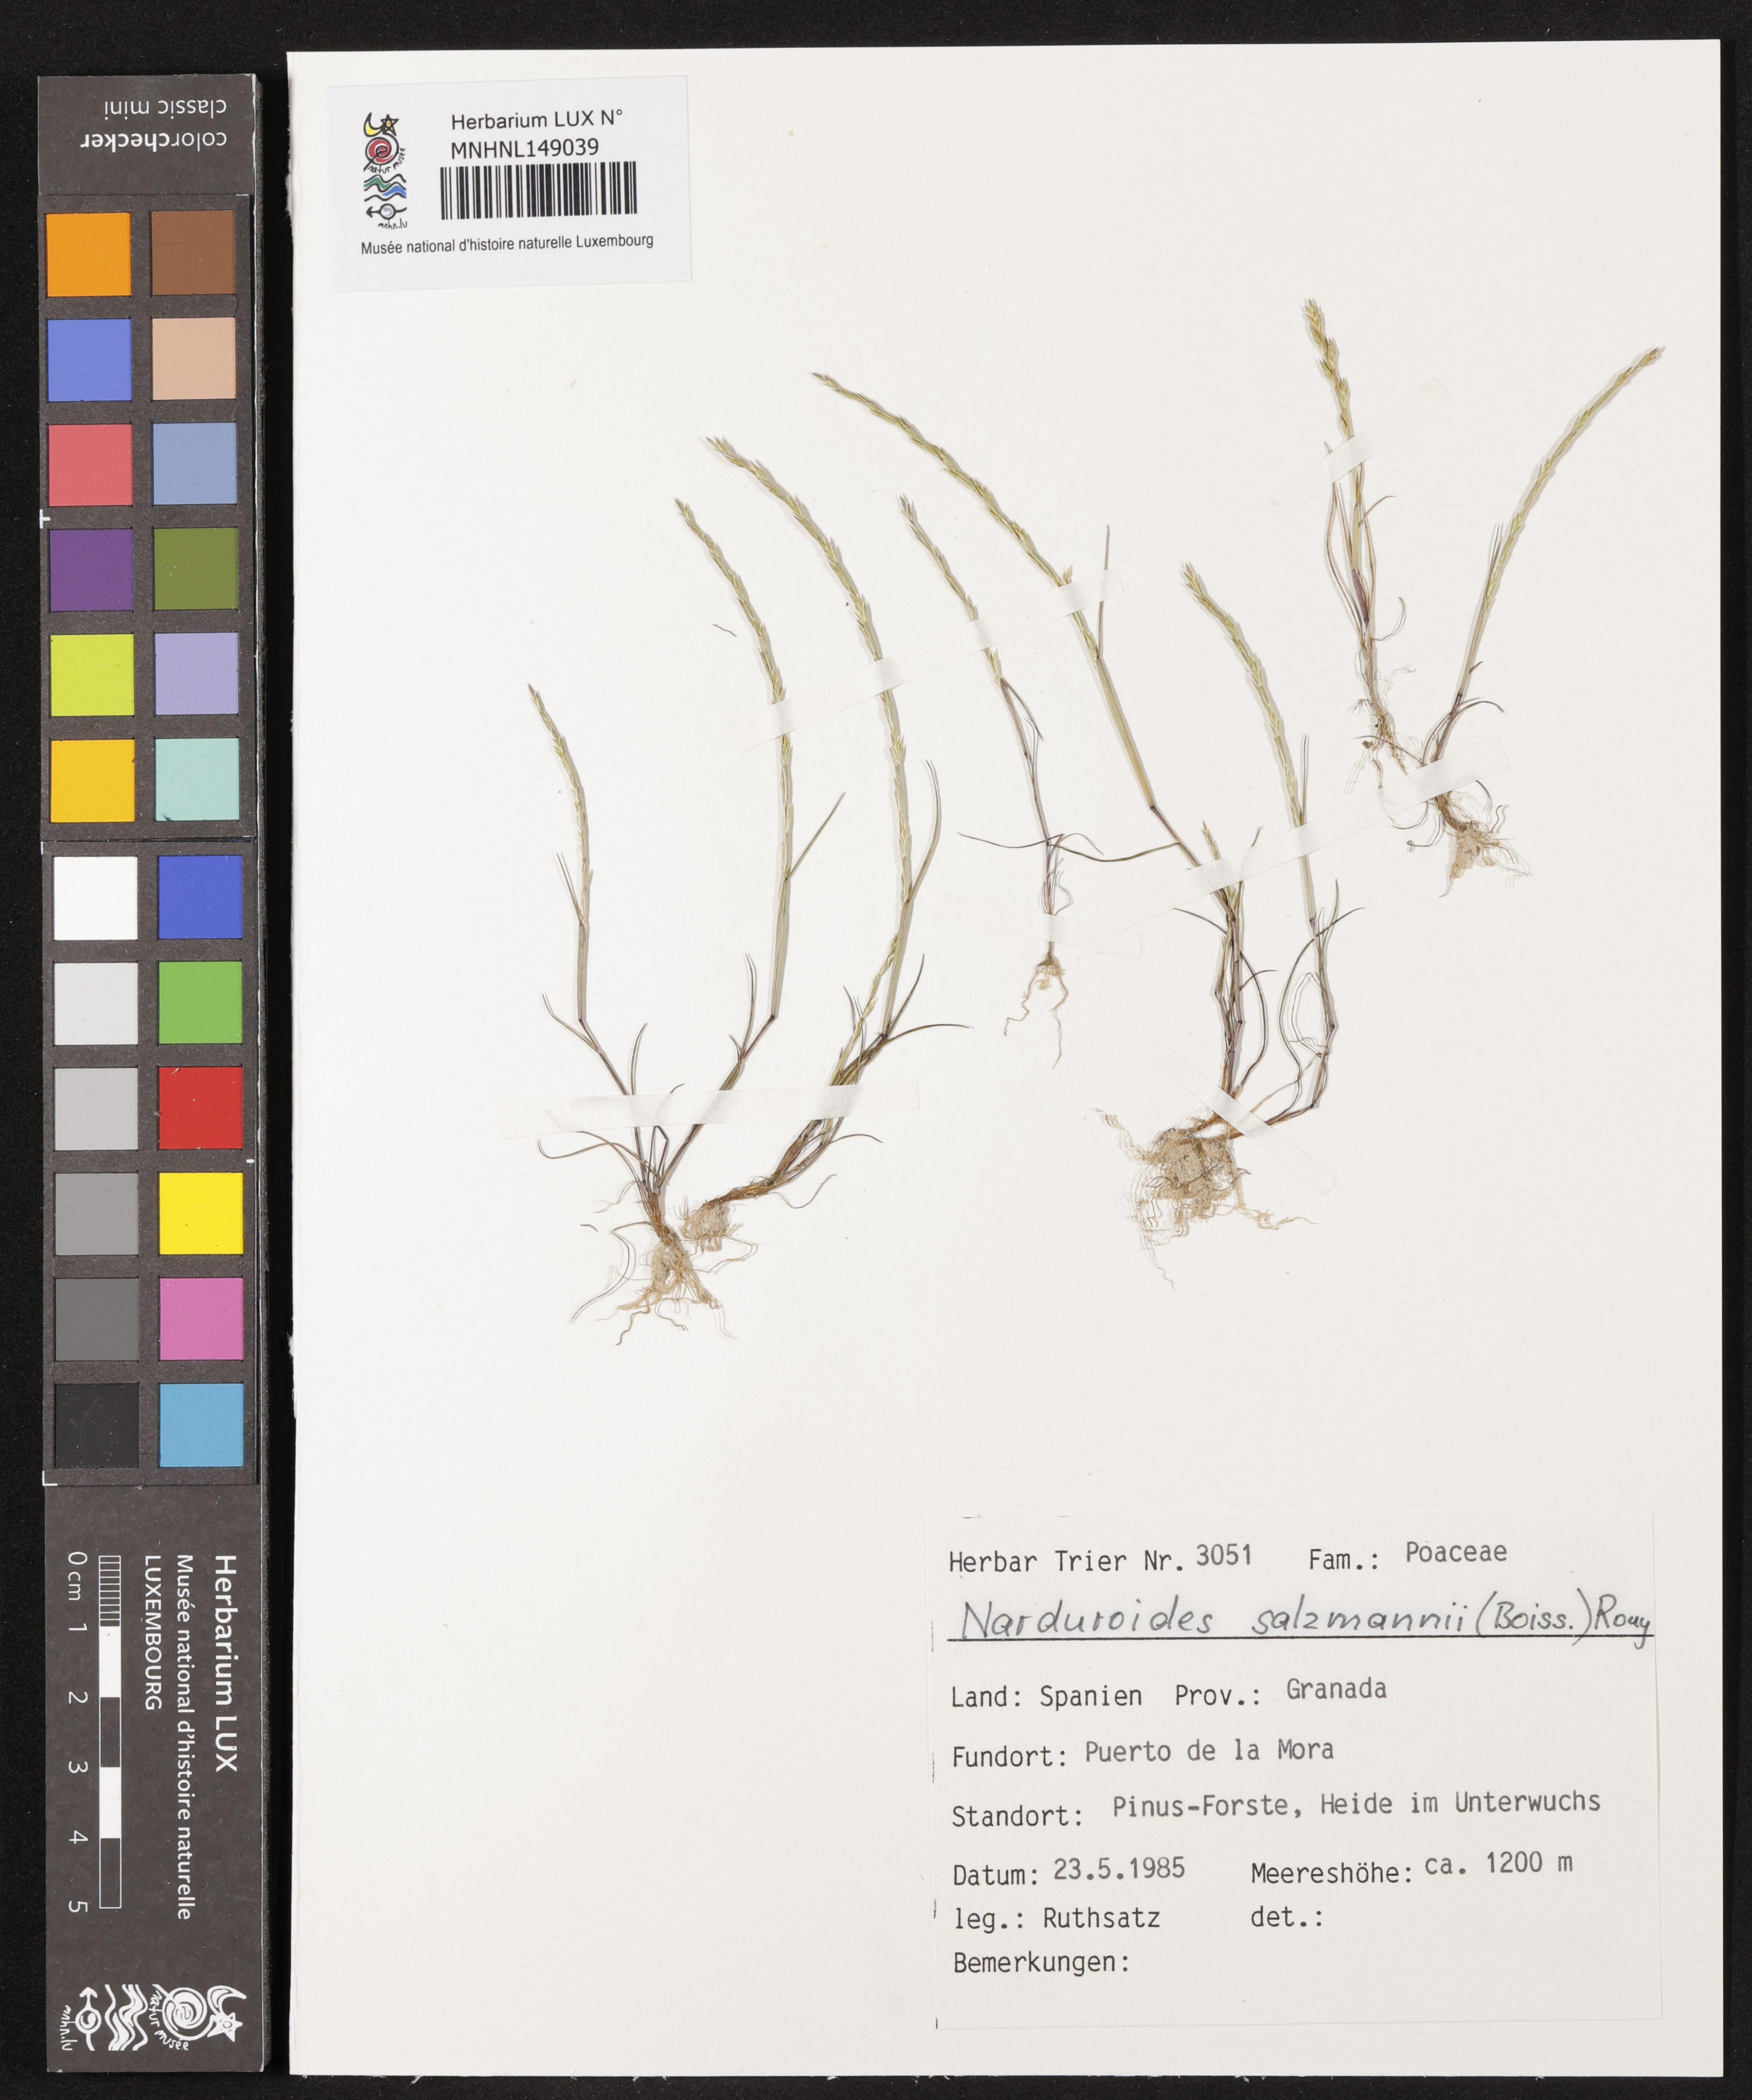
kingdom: Plantae
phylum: Tracheophyta
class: Liliopsida
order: Poales
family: Poaceae
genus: Festuca
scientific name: Festuca salzmannii
